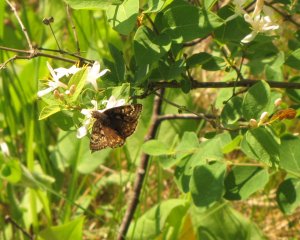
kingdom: Animalia
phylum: Arthropoda
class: Insecta
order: Lepidoptera
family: Hesperiidae
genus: Gesta
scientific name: Gesta
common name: Juvenal's Duskywing
